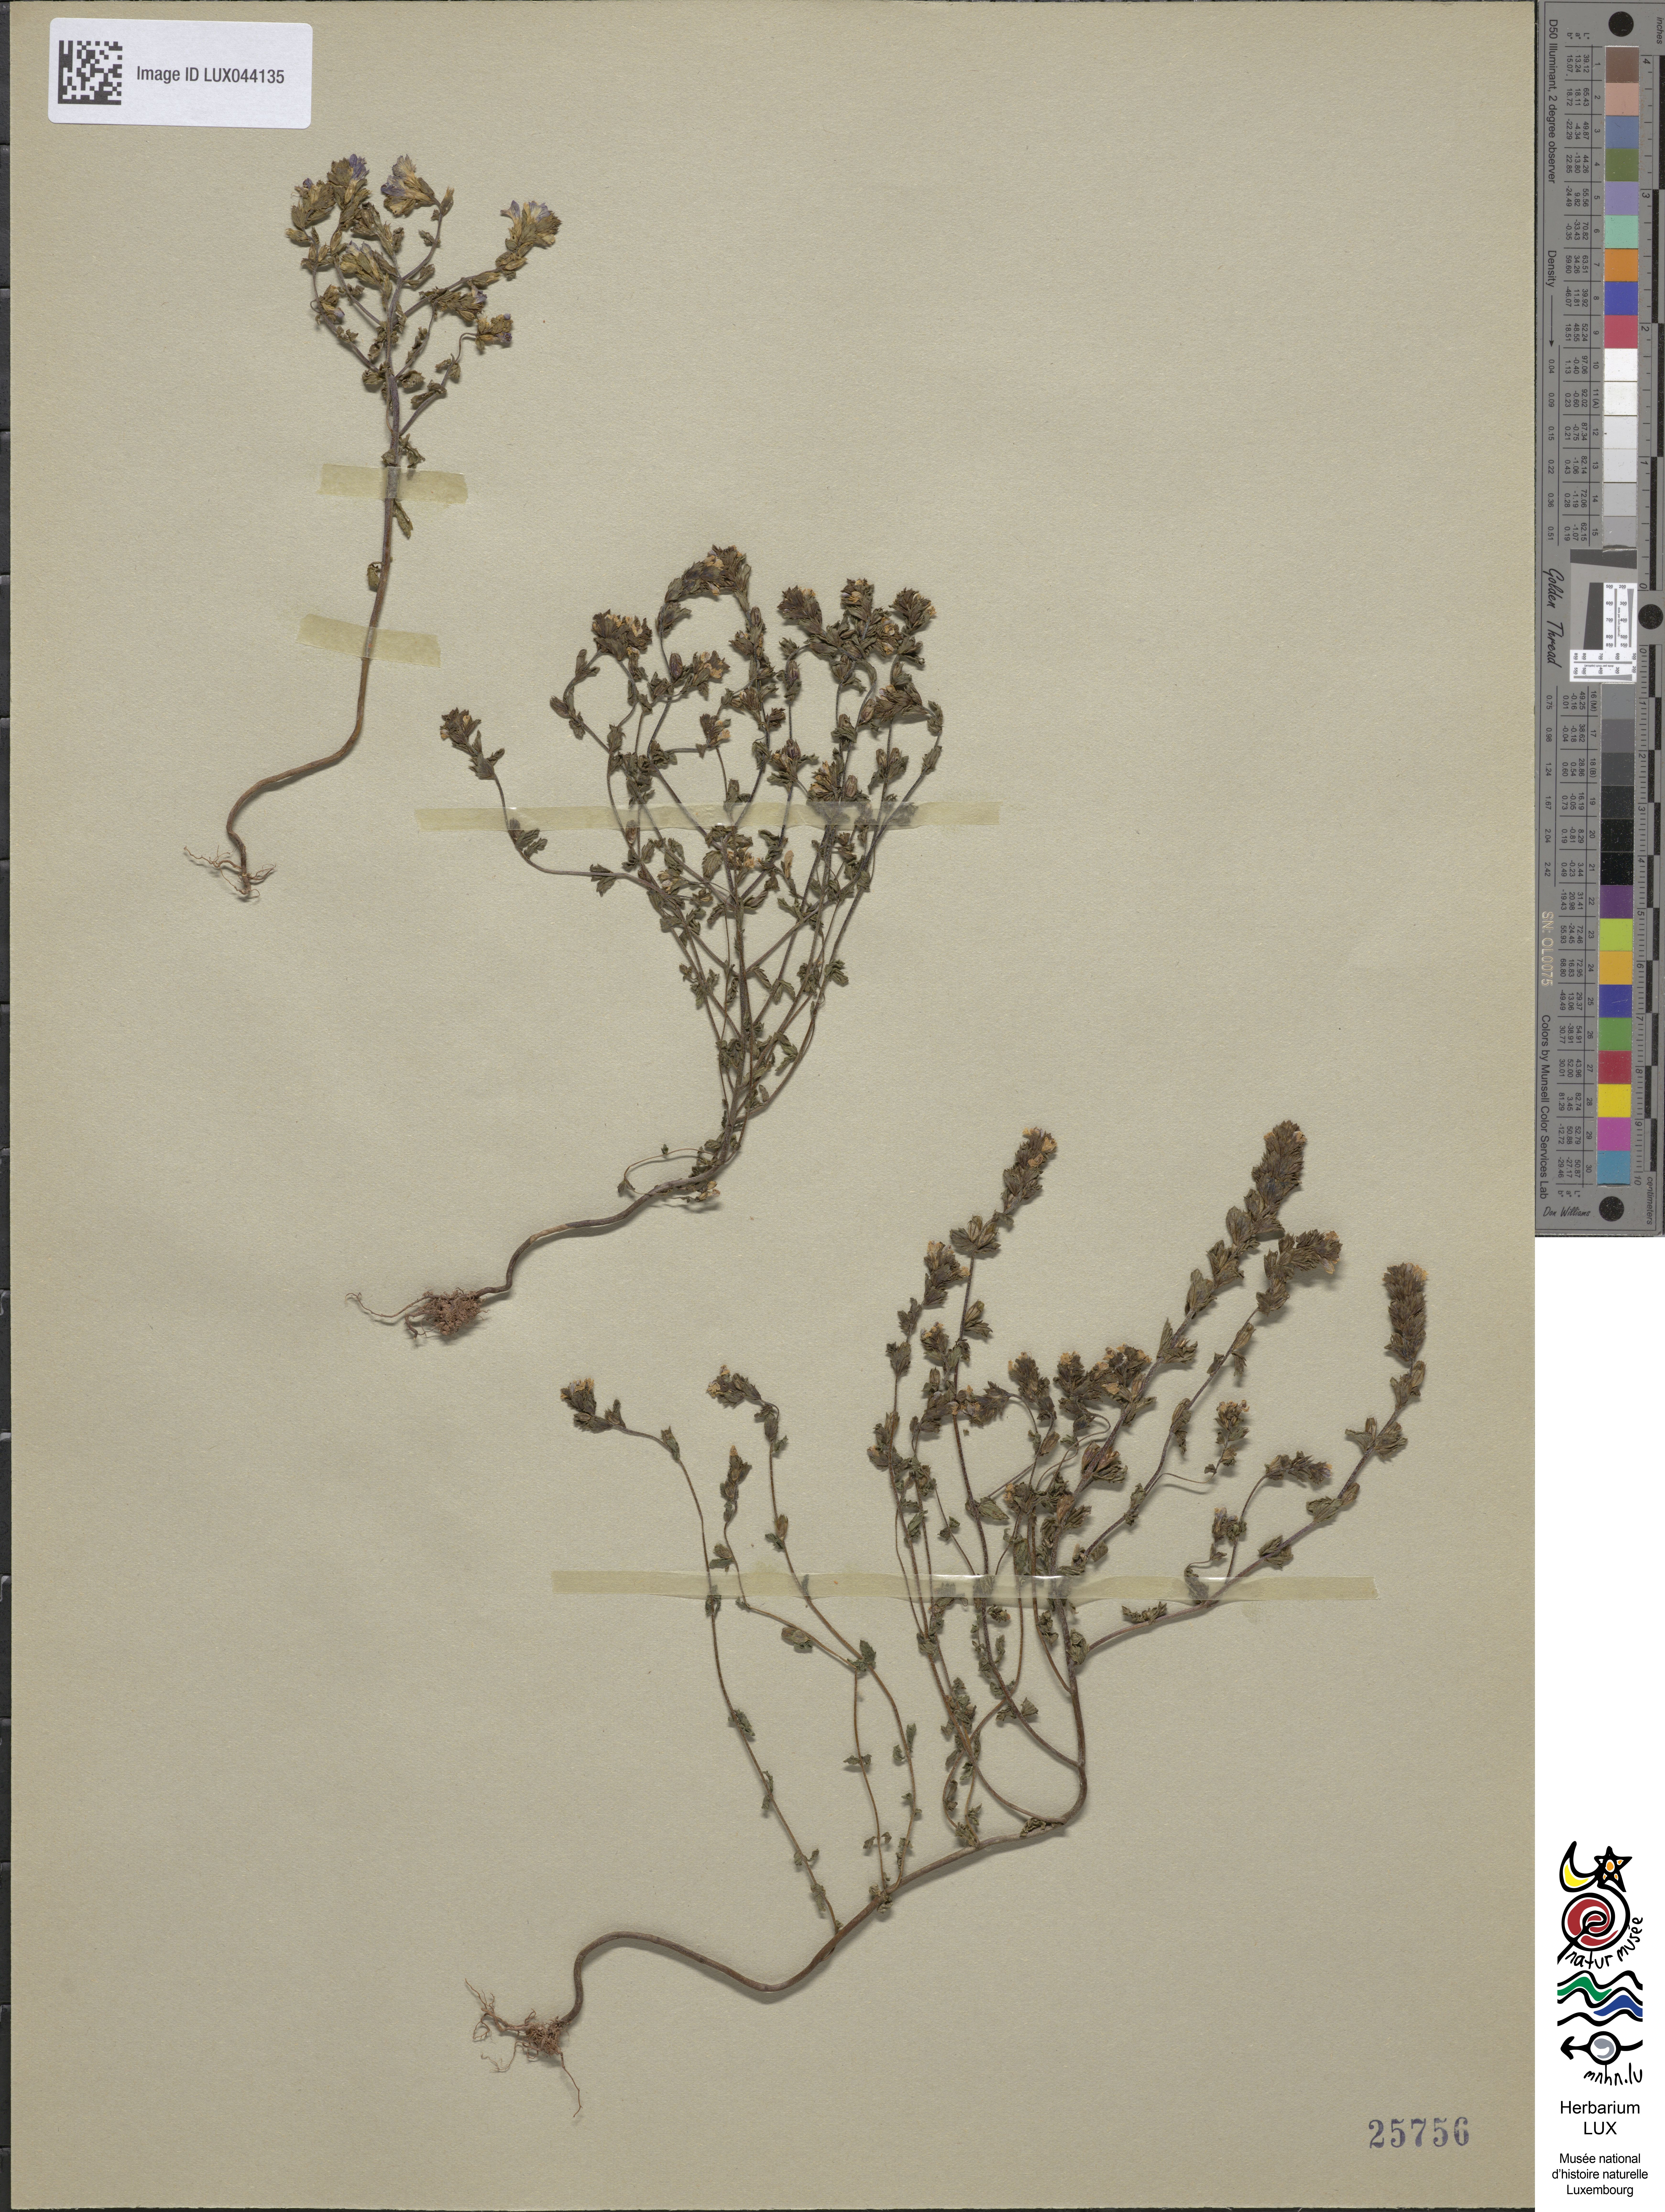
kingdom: Plantae
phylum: Tracheophyta
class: Magnoliopsida
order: Lamiales
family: Orobanchaceae
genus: Euphrasia
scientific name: Euphrasia nemorosa
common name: Common eyebright
